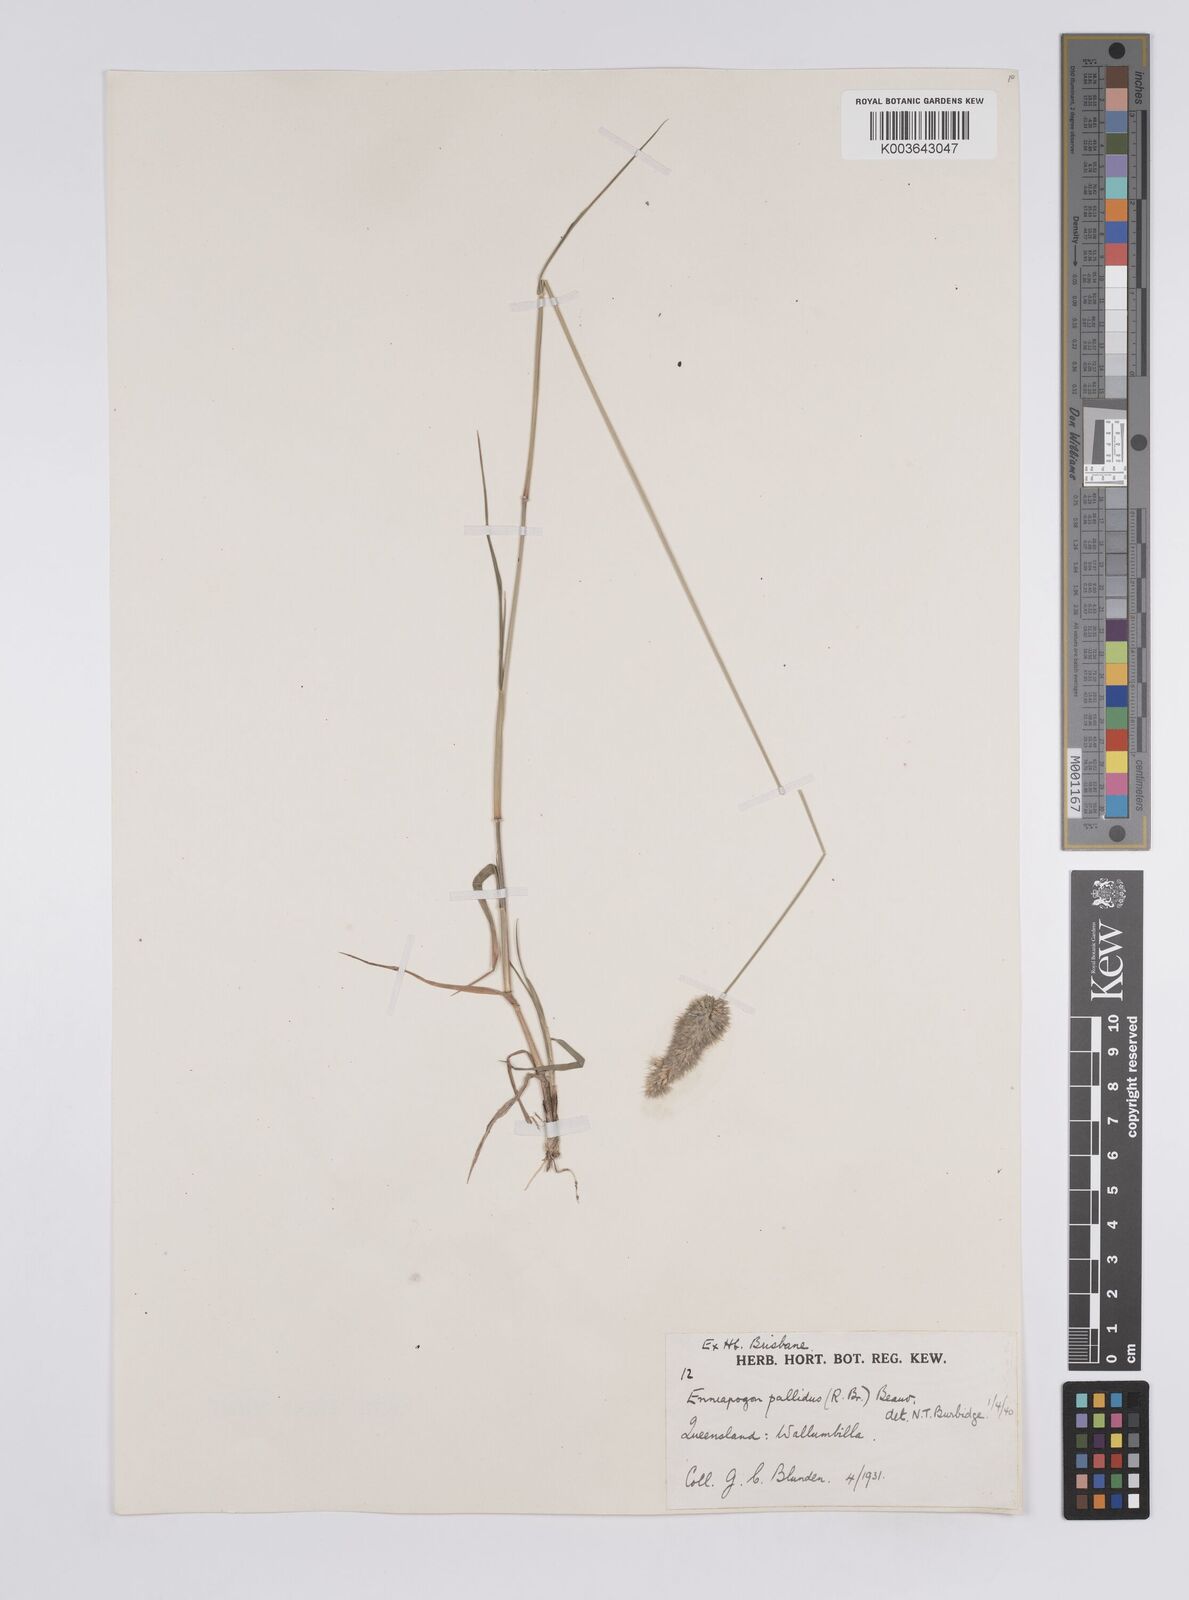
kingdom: Plantae
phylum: Tracheophyta
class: Liliopsida
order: Poales
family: Poaceae
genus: Enneapogon
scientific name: Enneapogon pallidus
